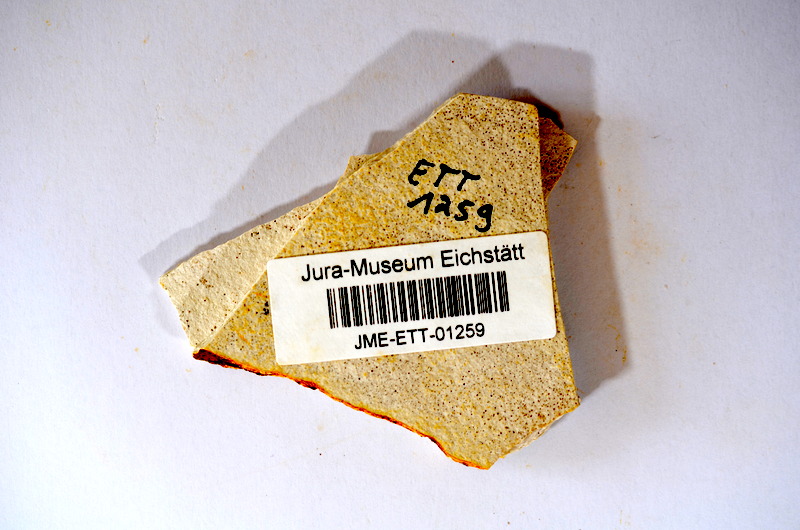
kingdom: Animalia
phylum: Chordata
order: Salmoniformes
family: Orthogonikleithridae
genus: Orthogonikleithrus
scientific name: Orthogonikleithrus hoelli
